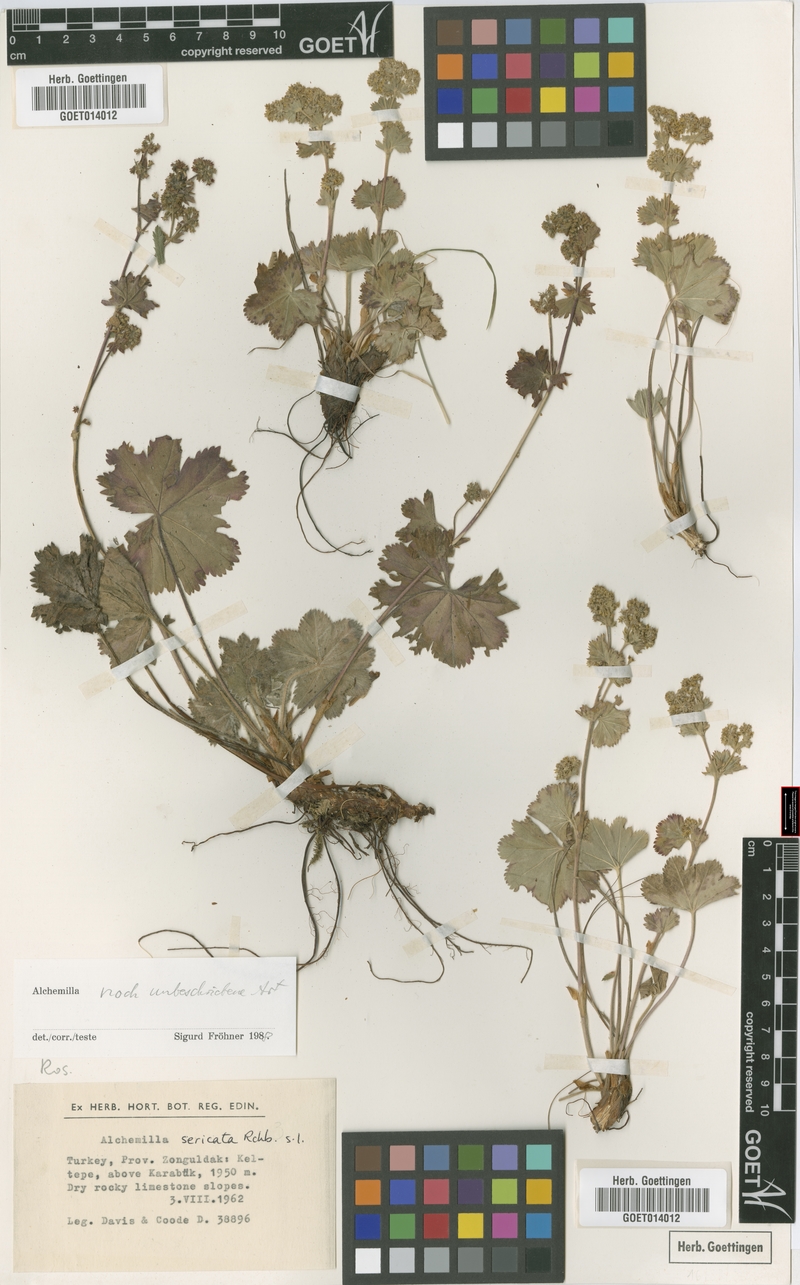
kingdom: Plantae
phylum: Tracheophyta
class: Magnoliopsida
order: Rosales
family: Rosaceae
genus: Alchemilla
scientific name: Alchemilla
